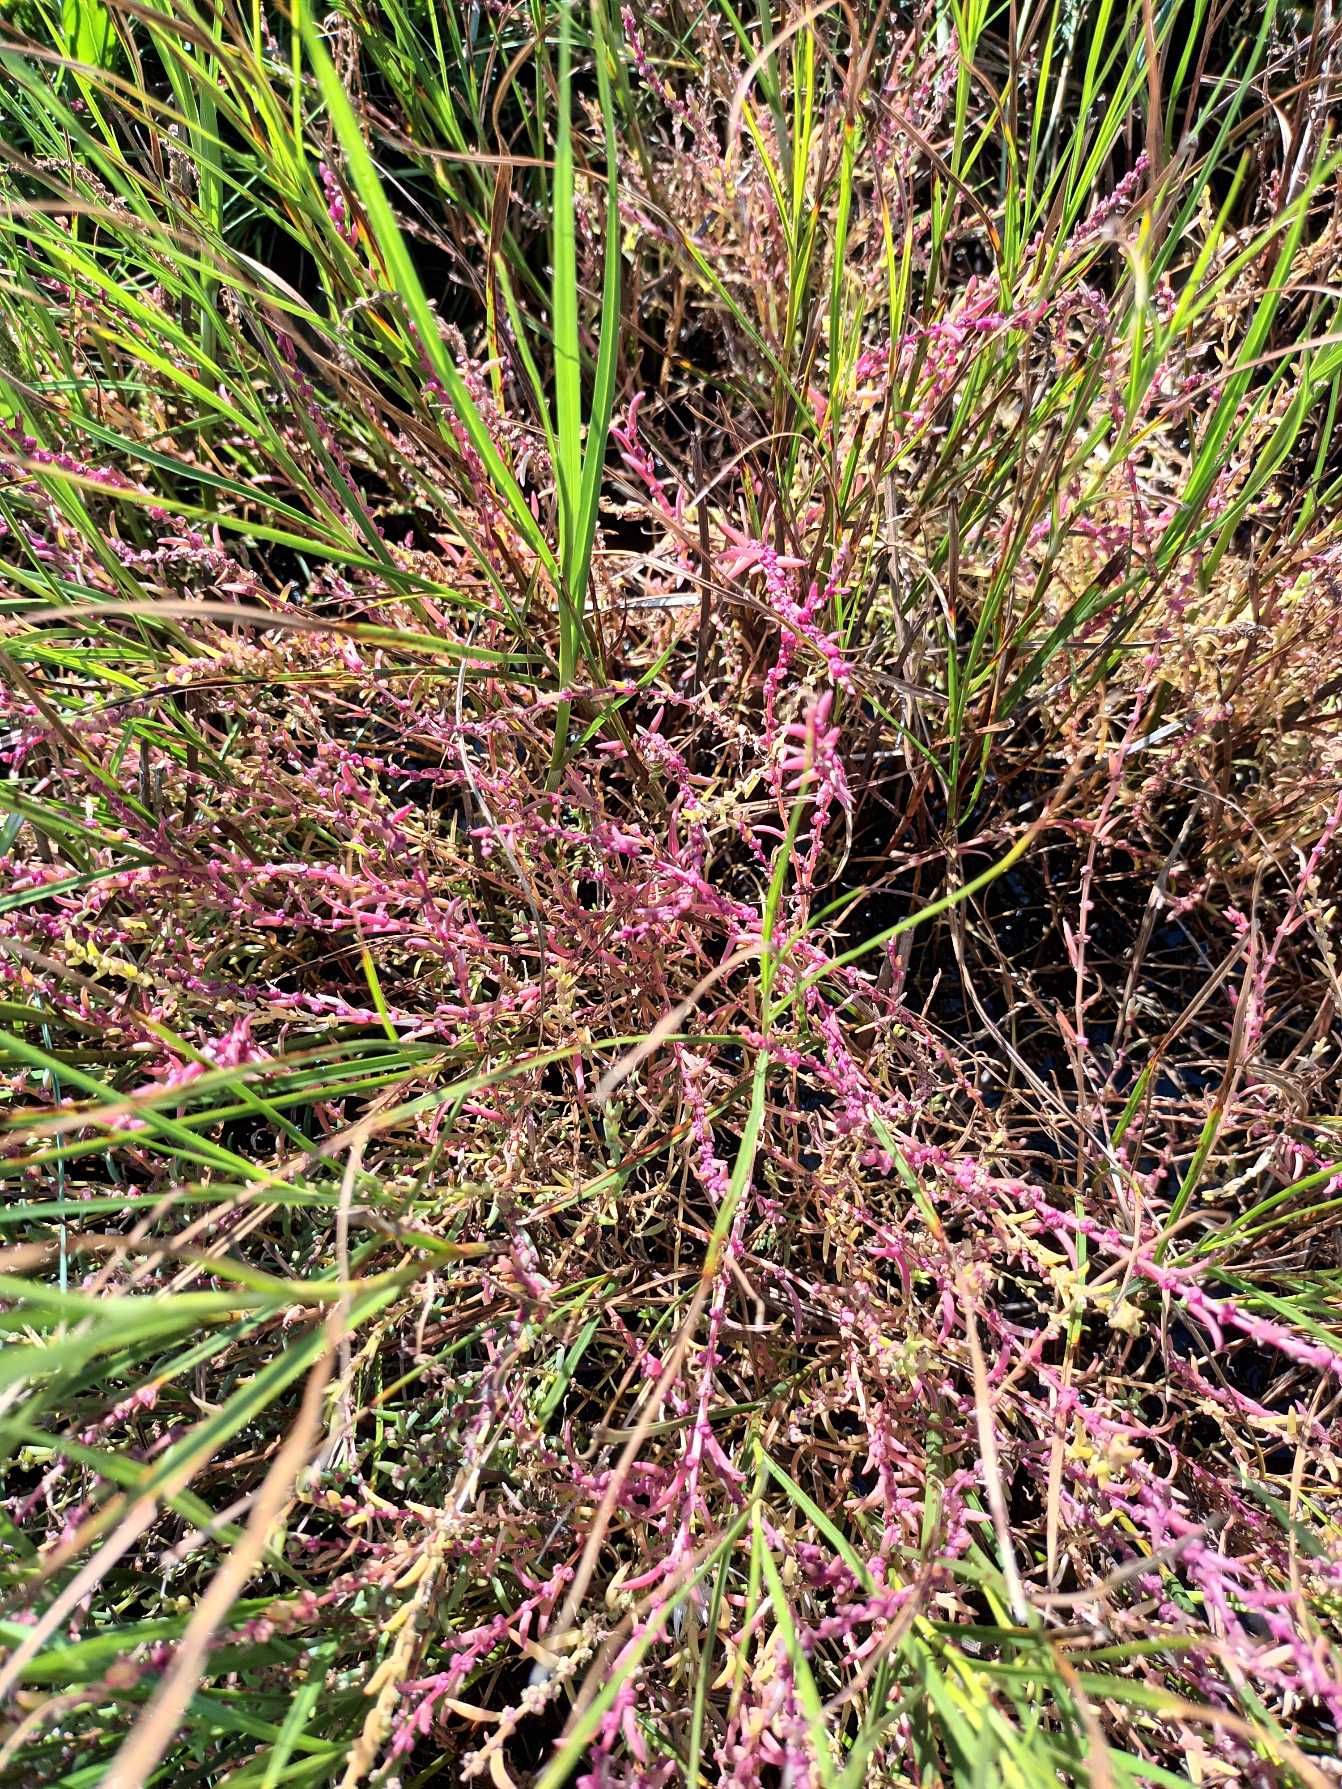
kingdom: Plantae
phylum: Tracheophyta
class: Magnoliopsida
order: Caryophyllales
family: Amaranthaceae
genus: Suaeda
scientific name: Suaeda maritima
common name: Strandgåsefod
